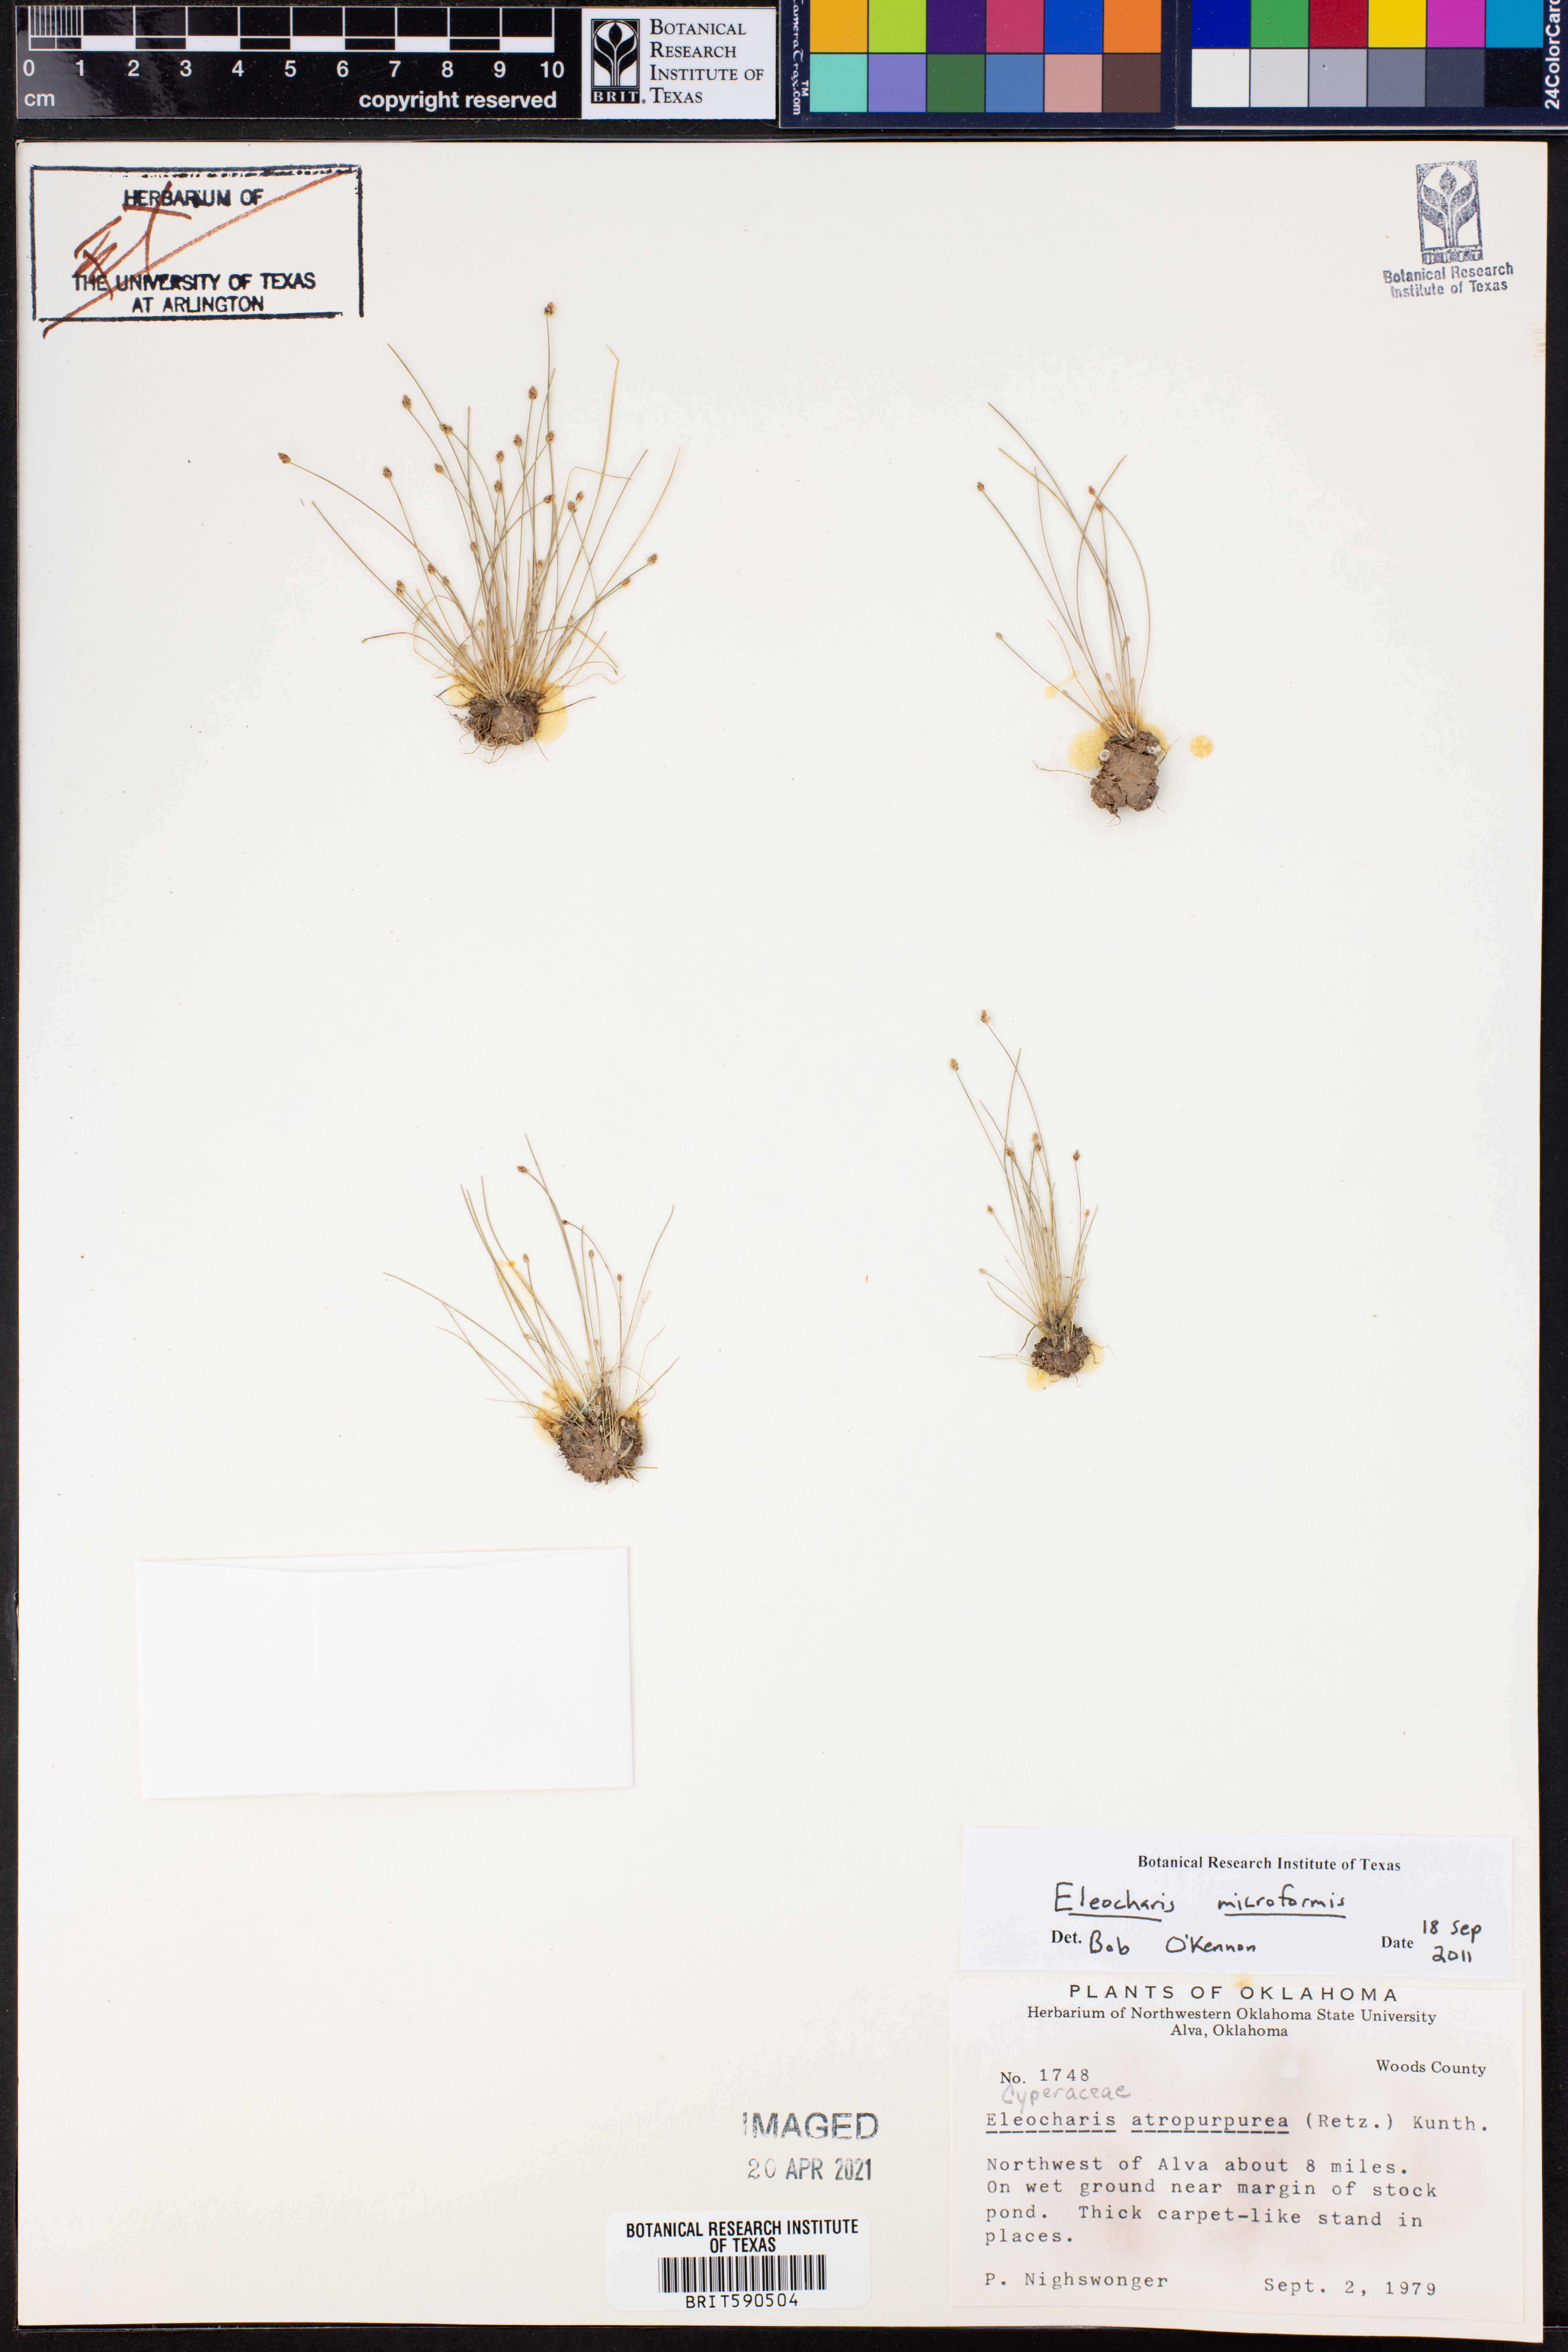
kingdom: Plantae
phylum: Tracheophyta
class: Liliopsida
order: Poales
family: Cyperaceae
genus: Eleocharis
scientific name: Eleocharis microformis
